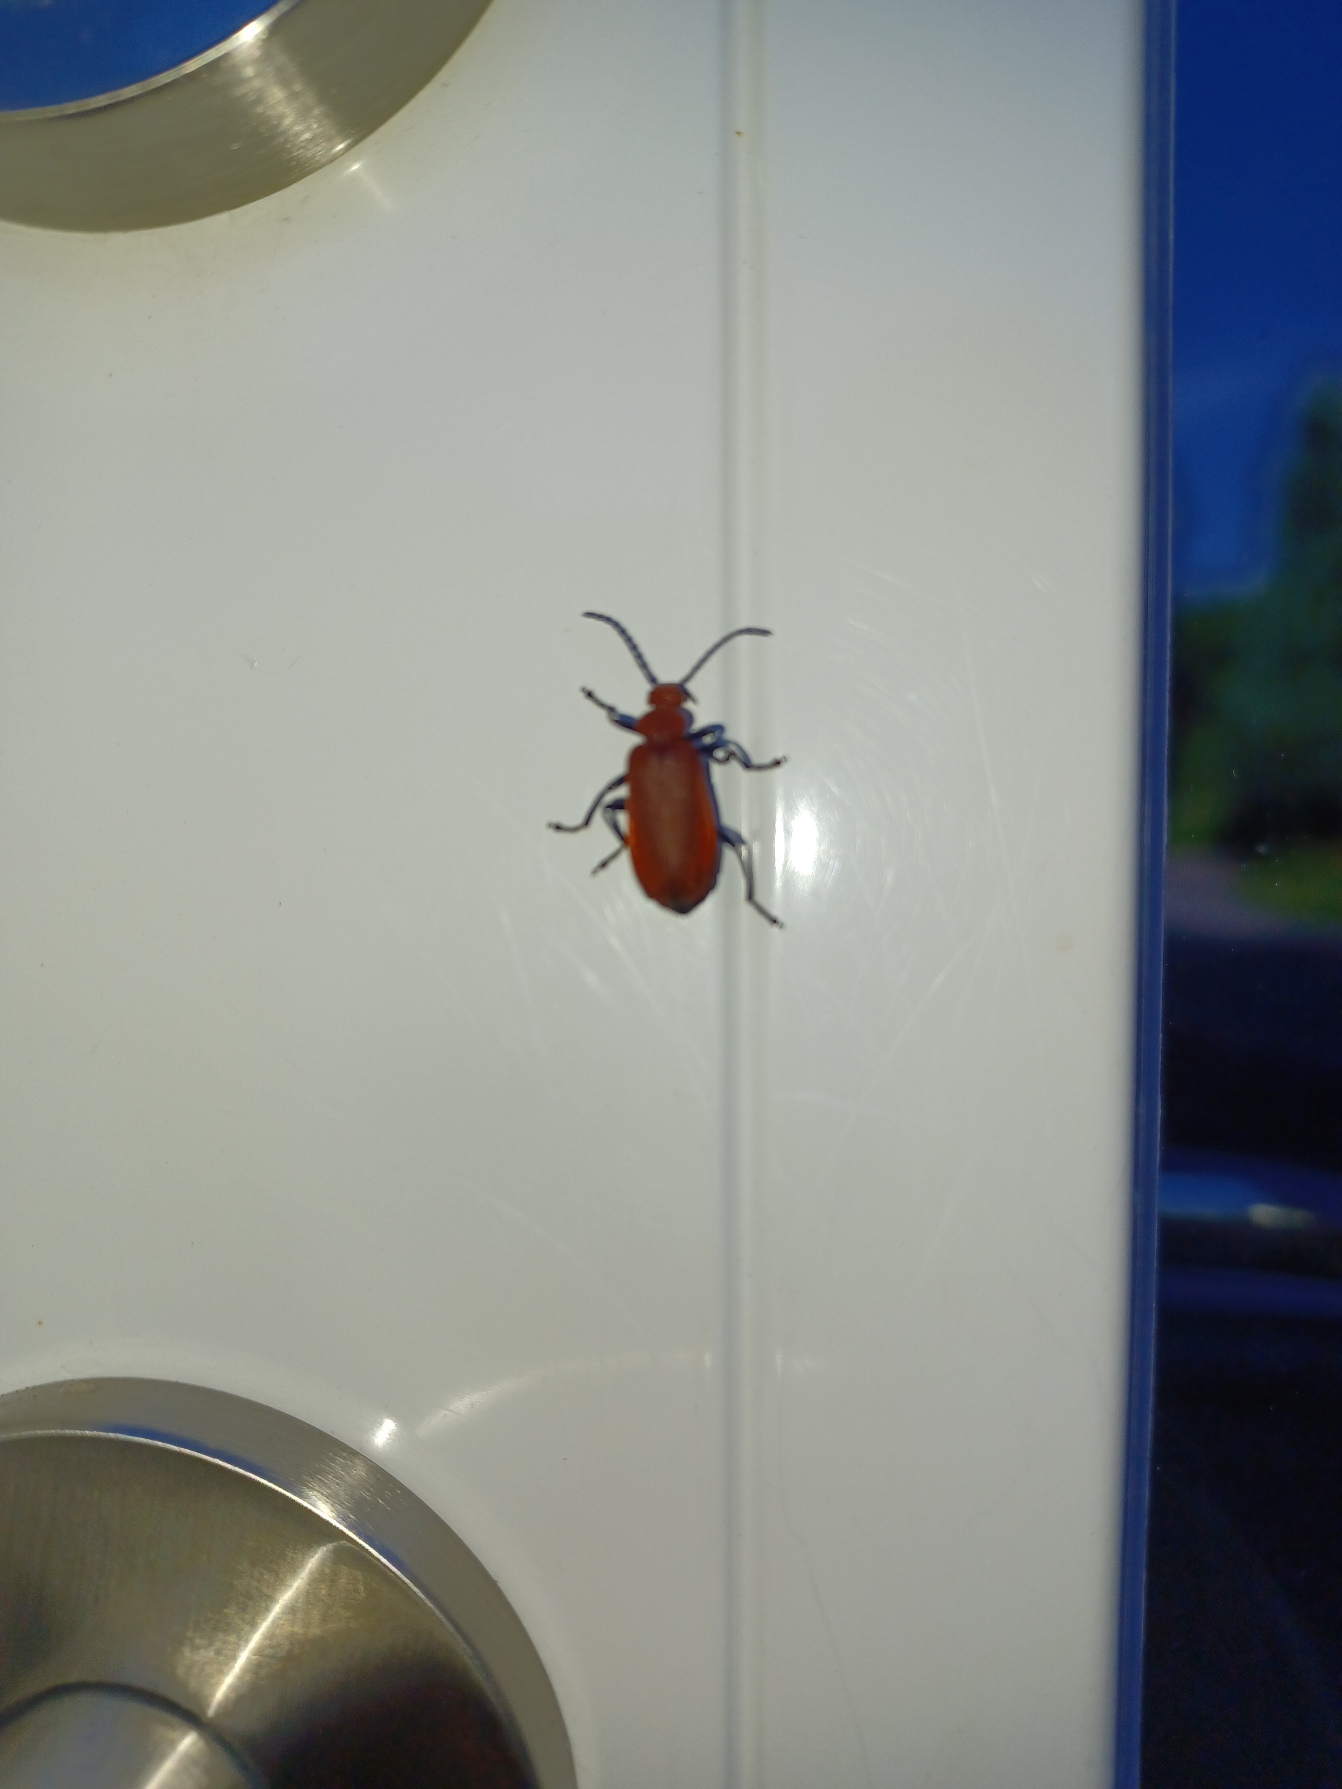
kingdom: Animalia
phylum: Arthropoda
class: Insecta
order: Coleoptera
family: Pyrochroidae
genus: Pyrochroa
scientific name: Pyrochroa serraticornis
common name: Rødhovedet kardinalbille
